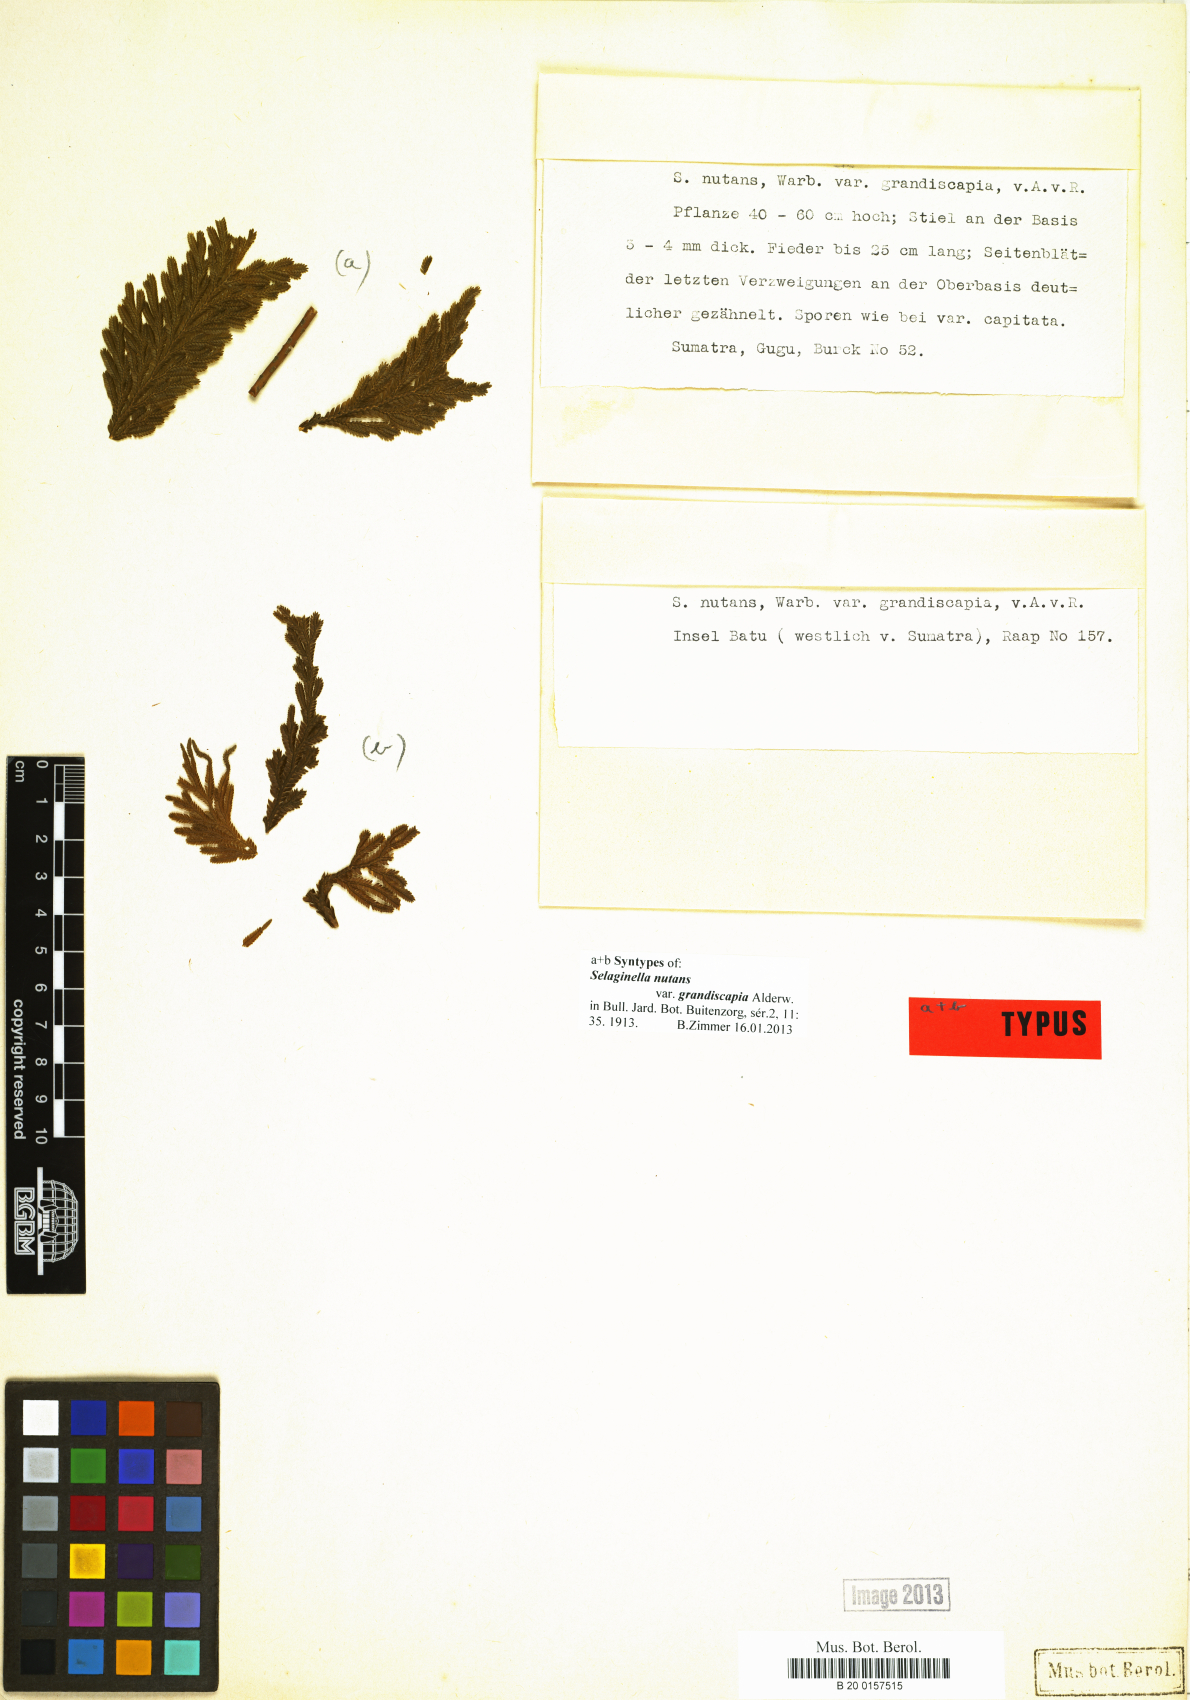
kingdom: Plantae
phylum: Tracheophyta
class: Lycopodiopsida
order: Selaginellales
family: Selaginellaceae
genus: Selaginella
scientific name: Selaginella frondosa
